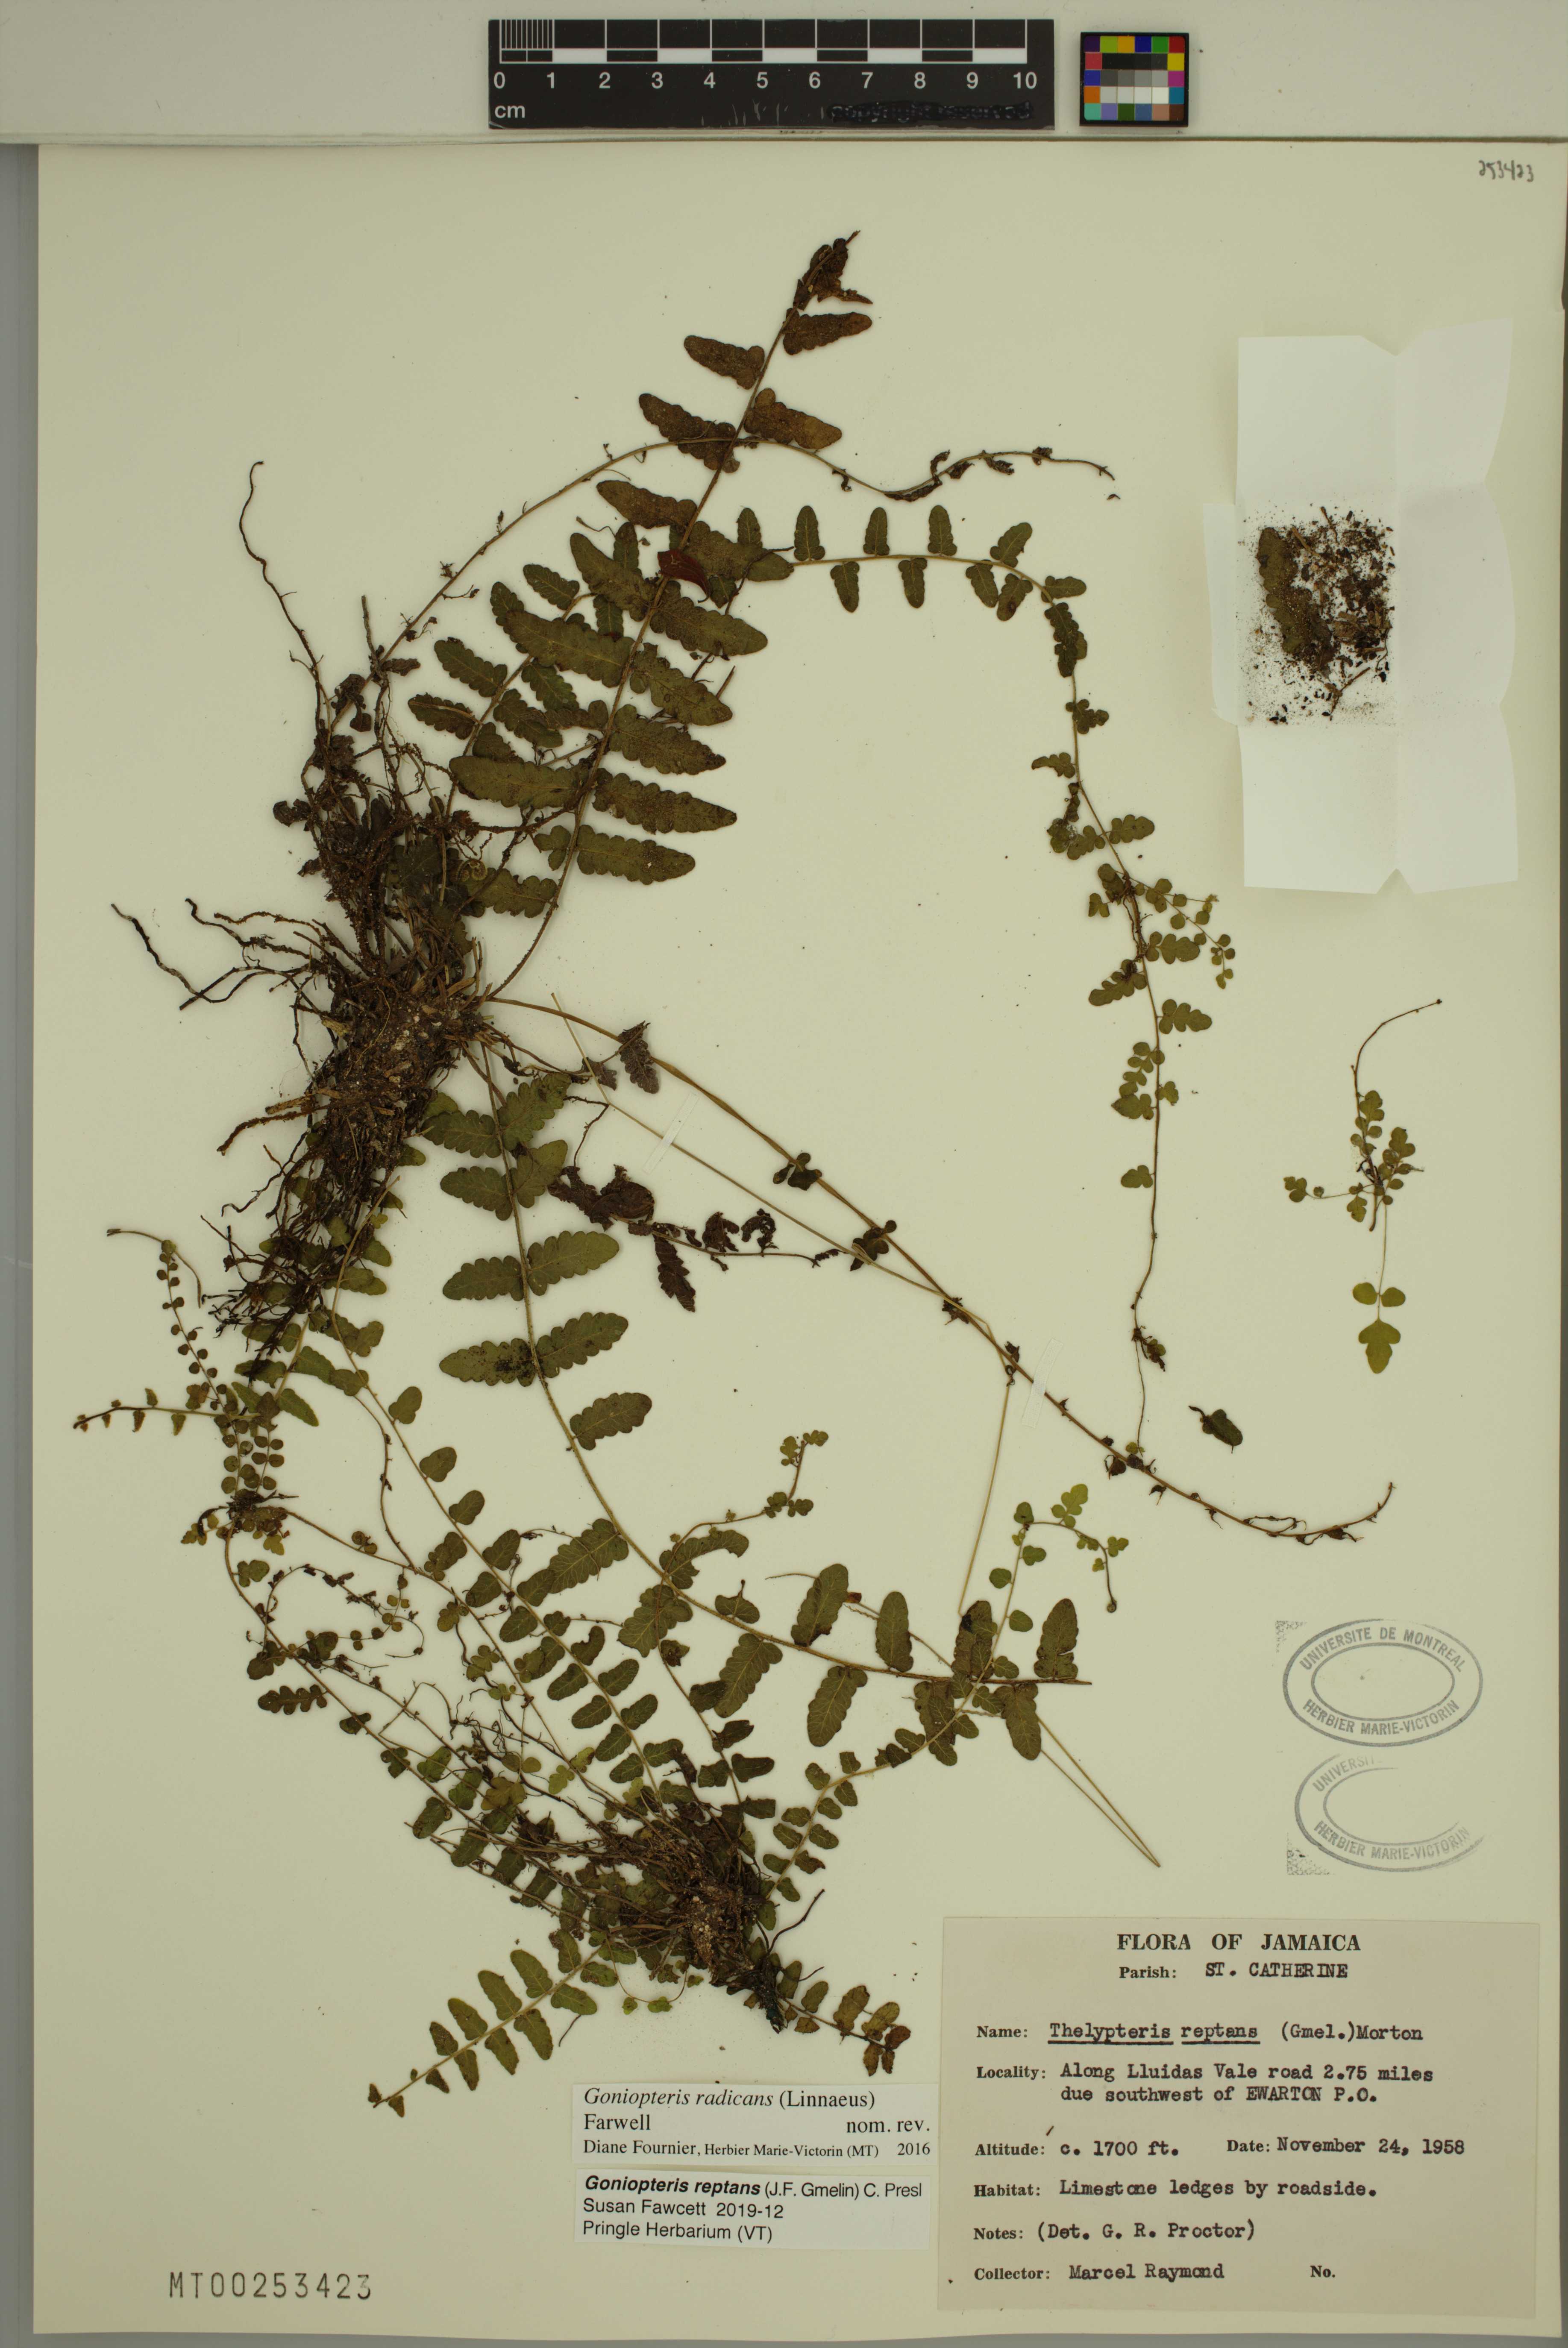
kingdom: Plantae
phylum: Tracheophyta
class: Polypodiopsida
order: Polypodiales
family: Thelypteridaceae
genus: Goniopteris
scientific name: Goniopteris reptans
